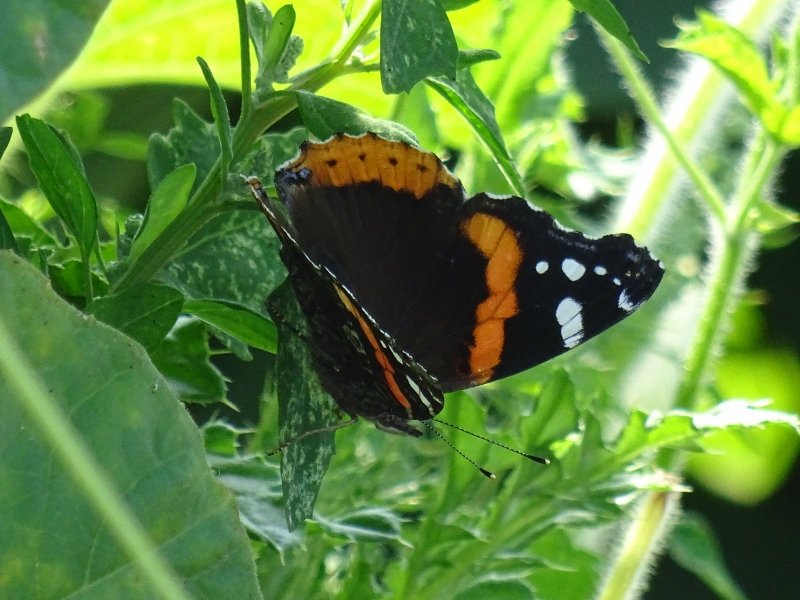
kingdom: Animalia
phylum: Arthropoda
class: Insecta
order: Lepidoptera
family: Nymphalidae
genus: Vanessa
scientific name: Vanessa atalanta
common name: Red Admiral
